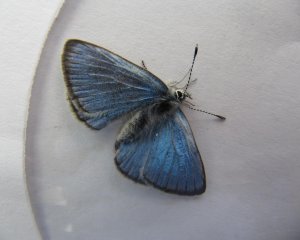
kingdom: Animalia
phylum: Arthropoda
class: Insecta
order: Lepidoptera
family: Lycaenidae
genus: Glaucopsyche
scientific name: Glaucopsyche lygdamus
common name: Silvery Blue
